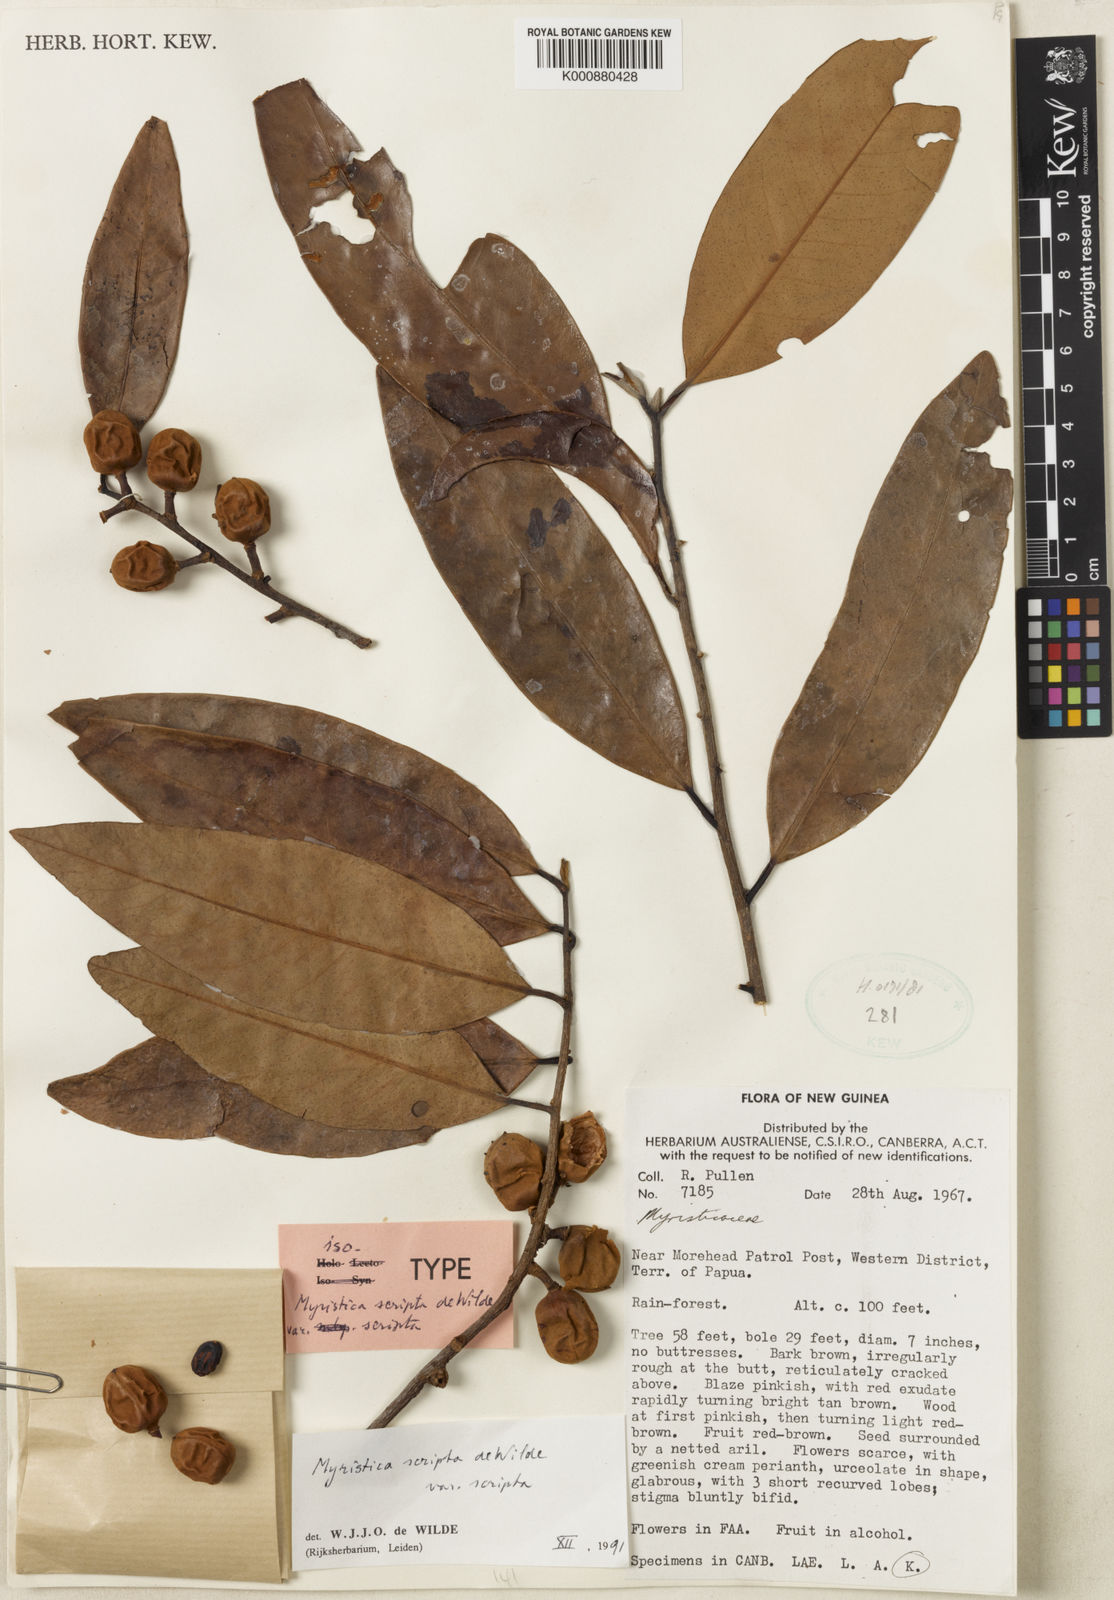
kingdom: Plantae
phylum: Tracheophyta
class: Magnoliopsida
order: Magnoliales
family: Myristicaceae
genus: Myristica
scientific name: Myristica scripta
